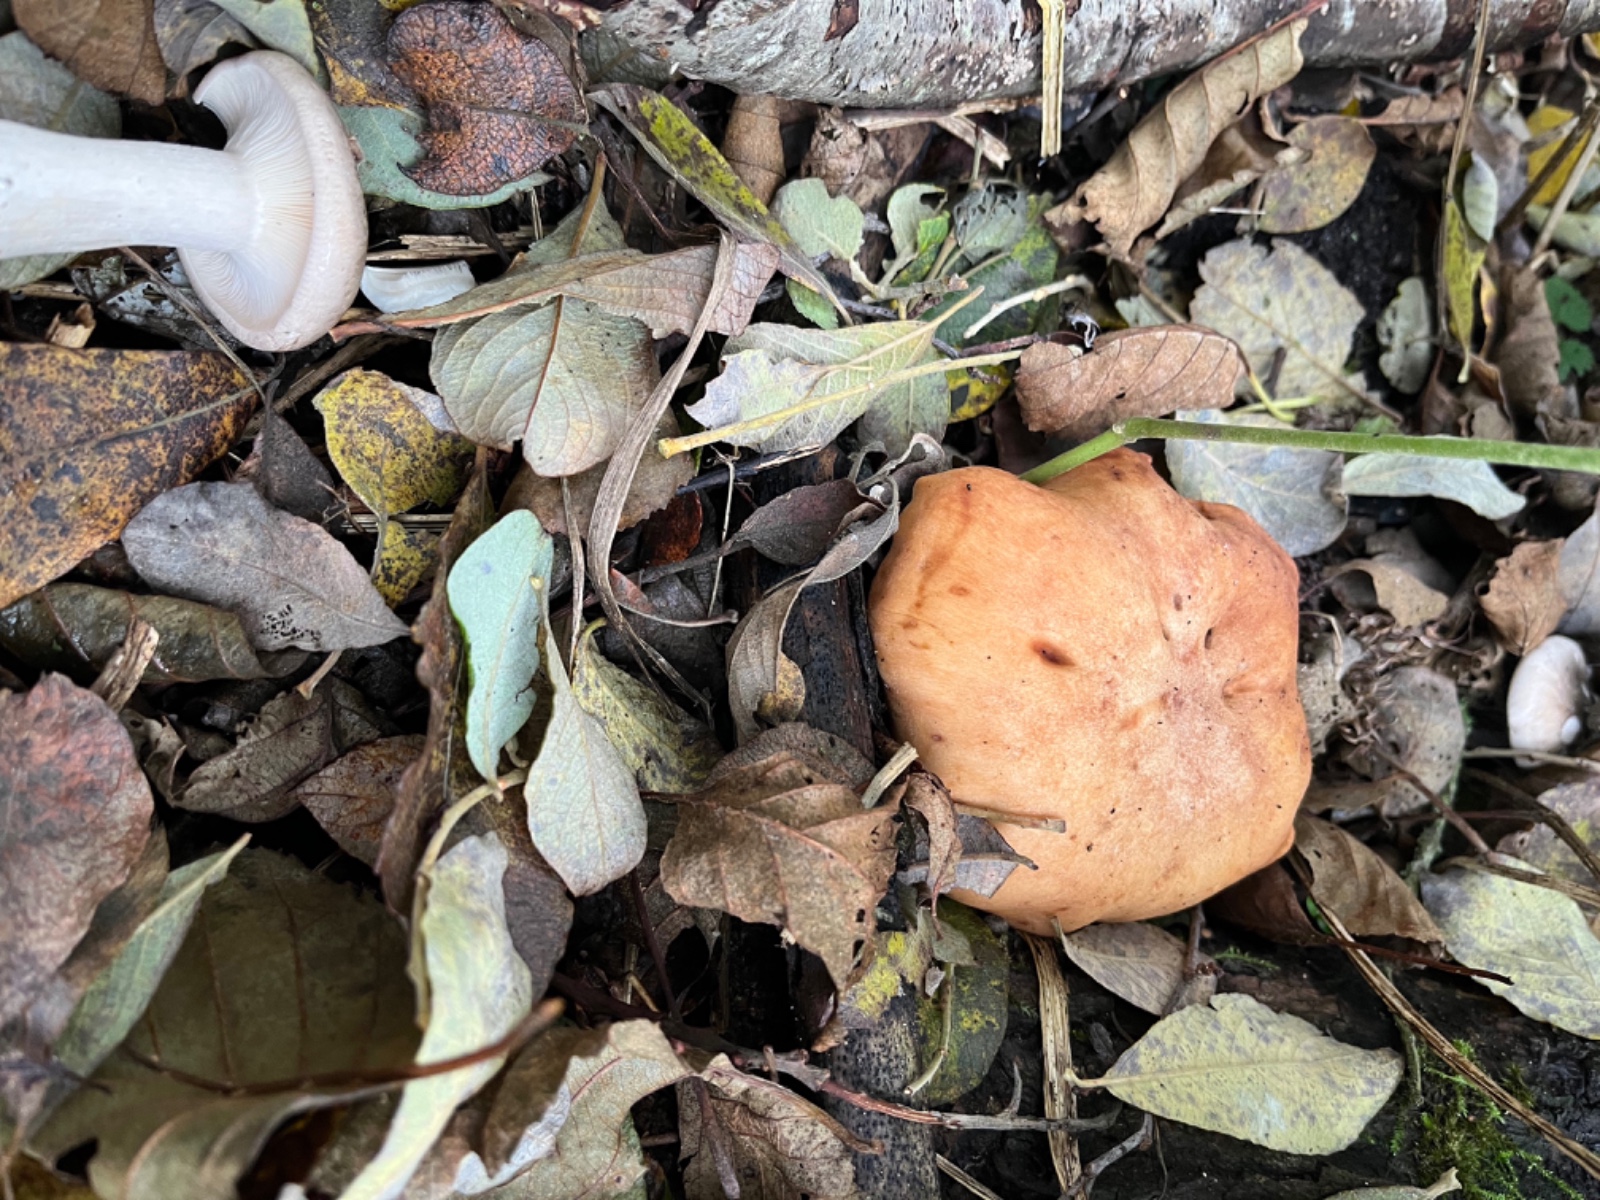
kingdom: Fungi
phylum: Basidiomycota
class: Agaricomycetes
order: Agaricales
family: Entolomataceae
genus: Clitopilus
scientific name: Clitopilus geminus
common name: kødfarvet troldhat
